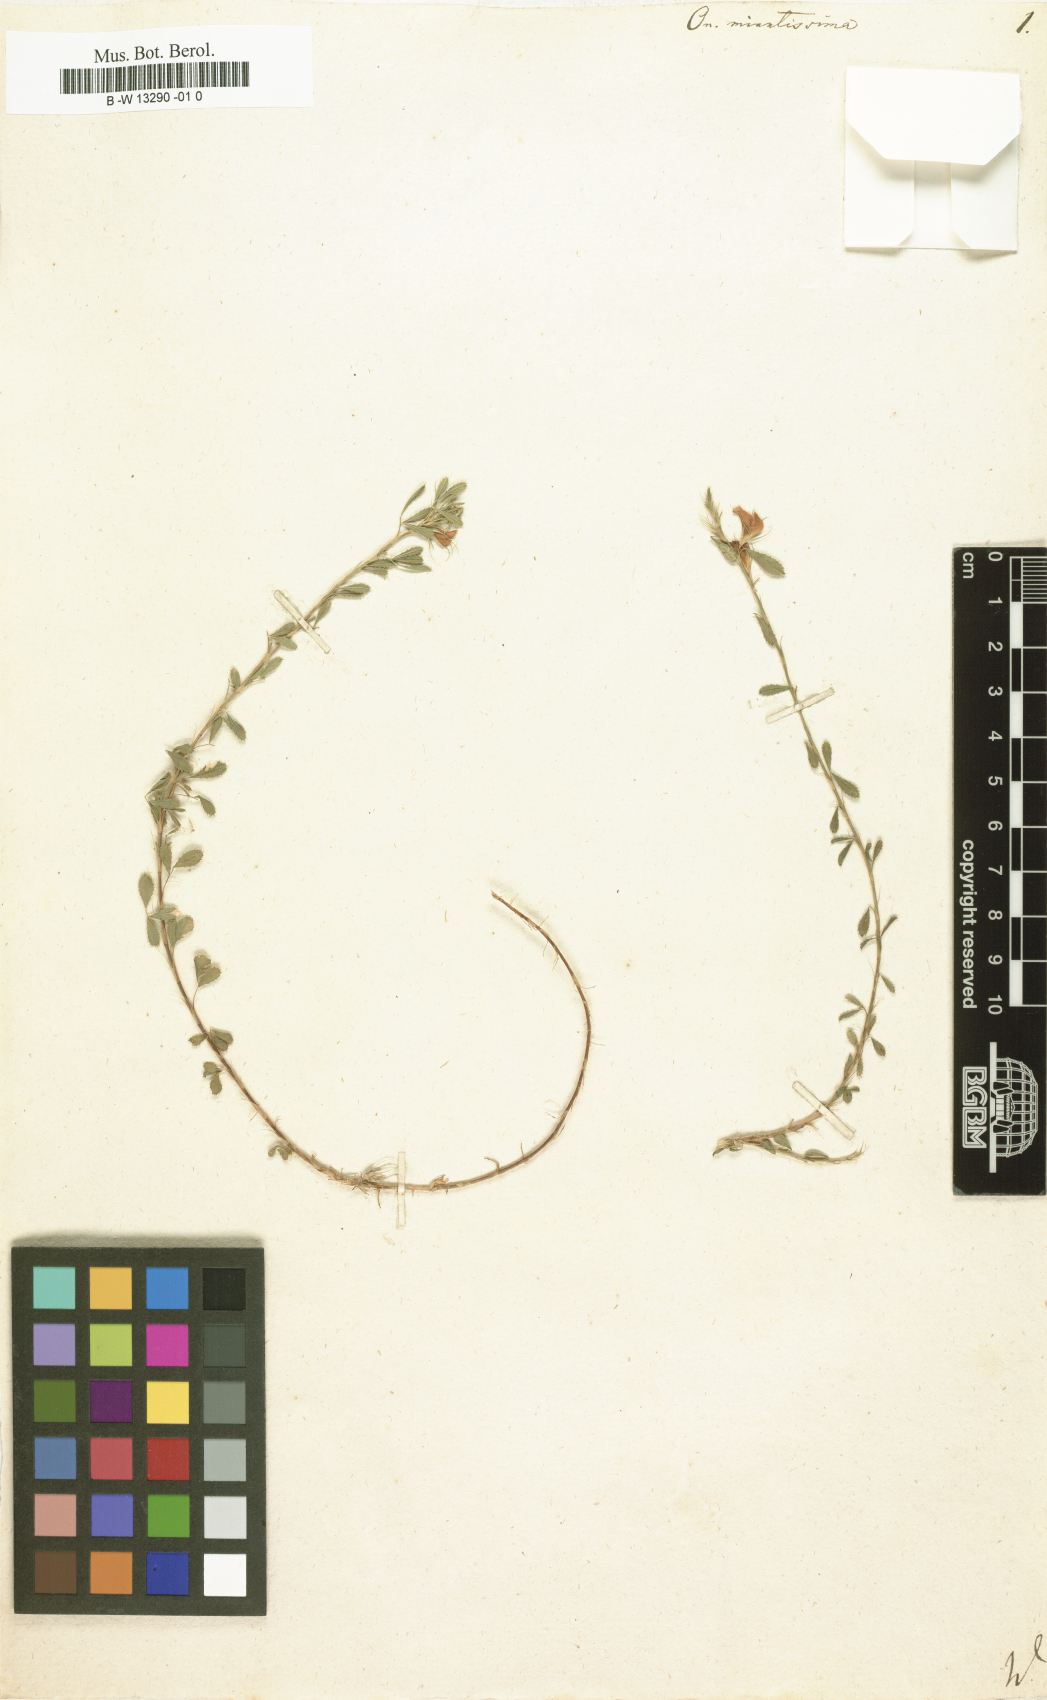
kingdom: Plantae
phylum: Tracheophyta
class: Magnoliopsida
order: Fabales
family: Fabaceae
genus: Ononis
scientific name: Ononis minutissima
